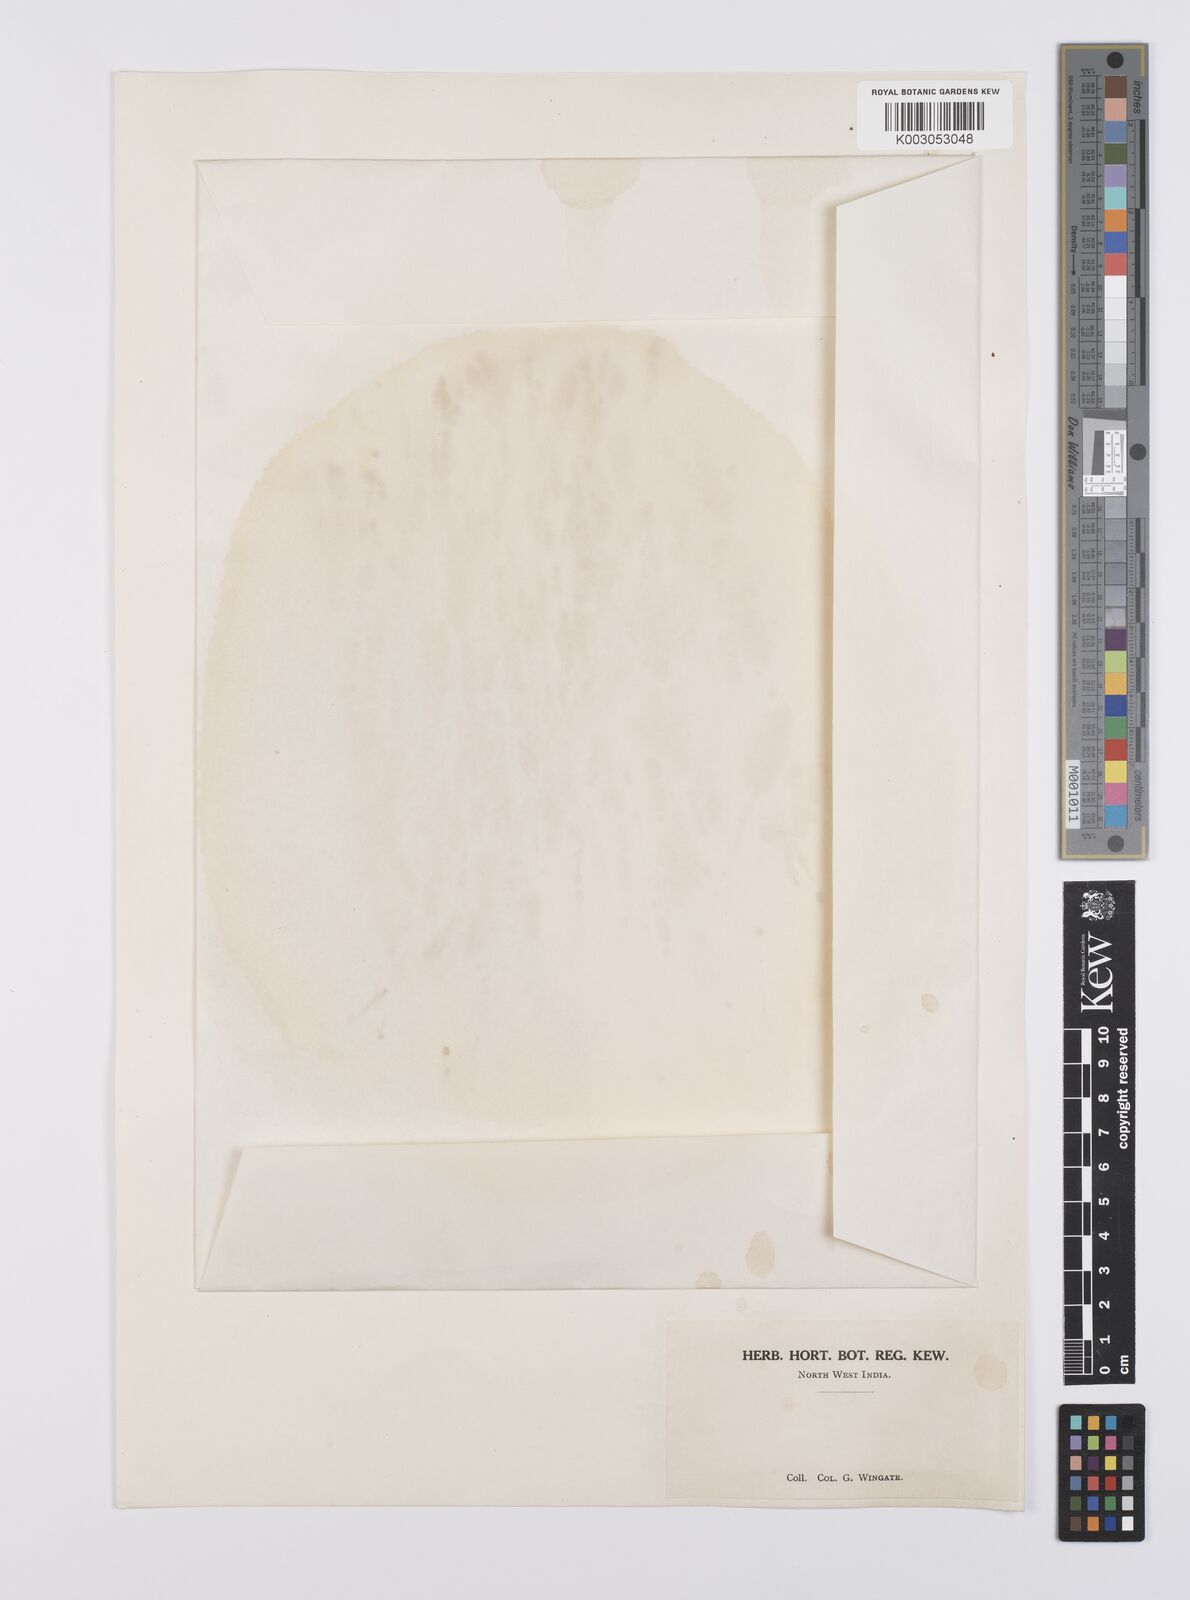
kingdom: Plantae
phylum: Tracheophyta
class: Liliopsida
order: Poales
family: Poaceae
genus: Cynodon
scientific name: Cynodon radiatus
